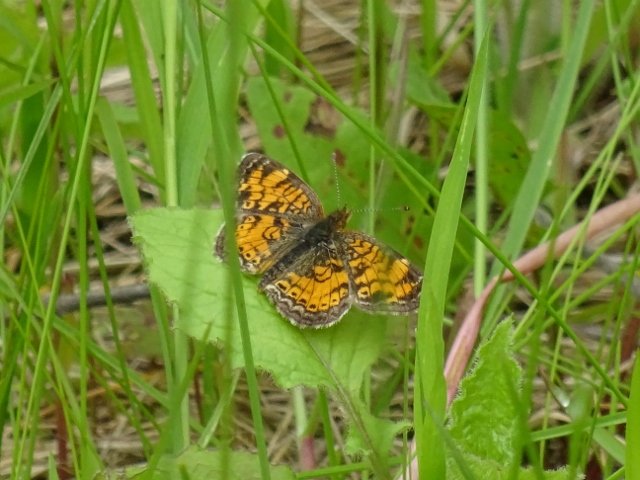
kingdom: Animalia
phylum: Arthropoda
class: Insecta
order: Lepidoptera
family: Nymphalidae
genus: Phyciodes
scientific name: Phyciodes tharos
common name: Northern Crescent
